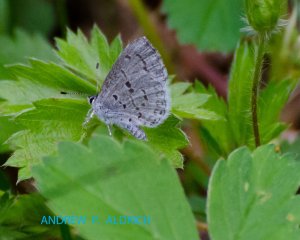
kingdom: Animalia
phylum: Arthropoda
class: Insecta
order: Lepidoptera
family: Lycaenidae
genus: Celastrina
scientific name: Celastrina lucia
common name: Northern Spring Azure
